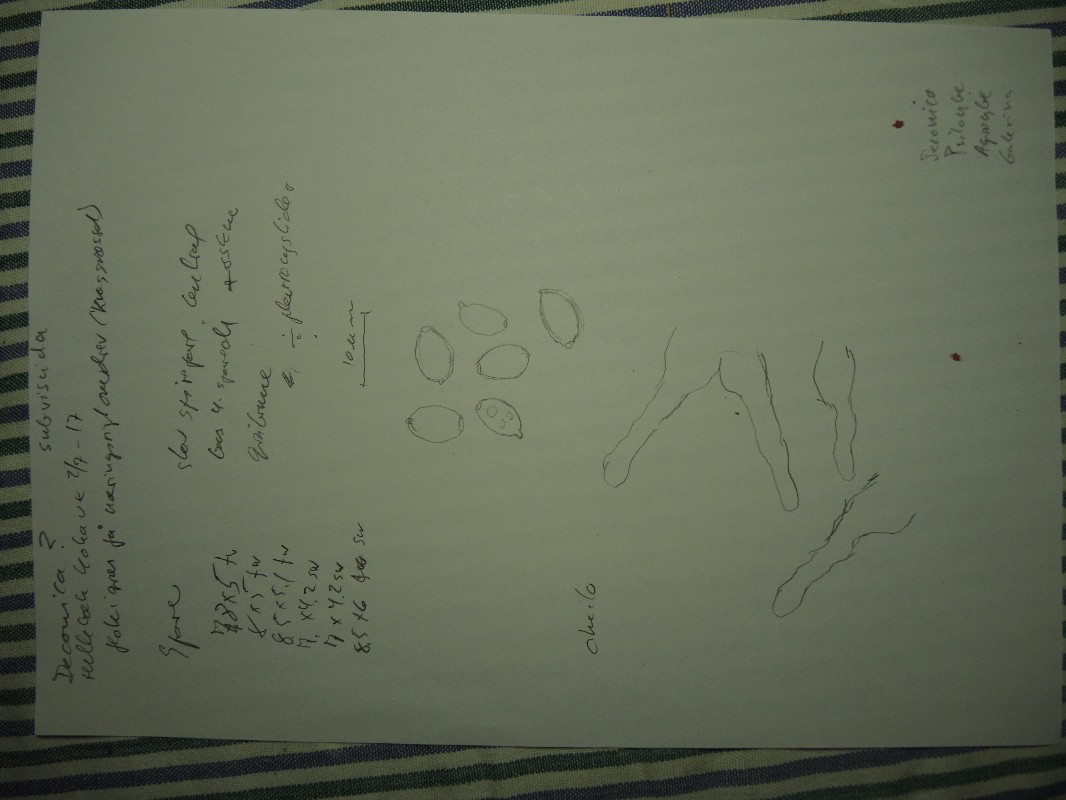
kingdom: Fungi
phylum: Basidiomycota
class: Agaricomycetes
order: Agaricales
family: Hymenogastraceae
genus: Psilocybe
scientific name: Psilocybe subviscida
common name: puklet stråhat
